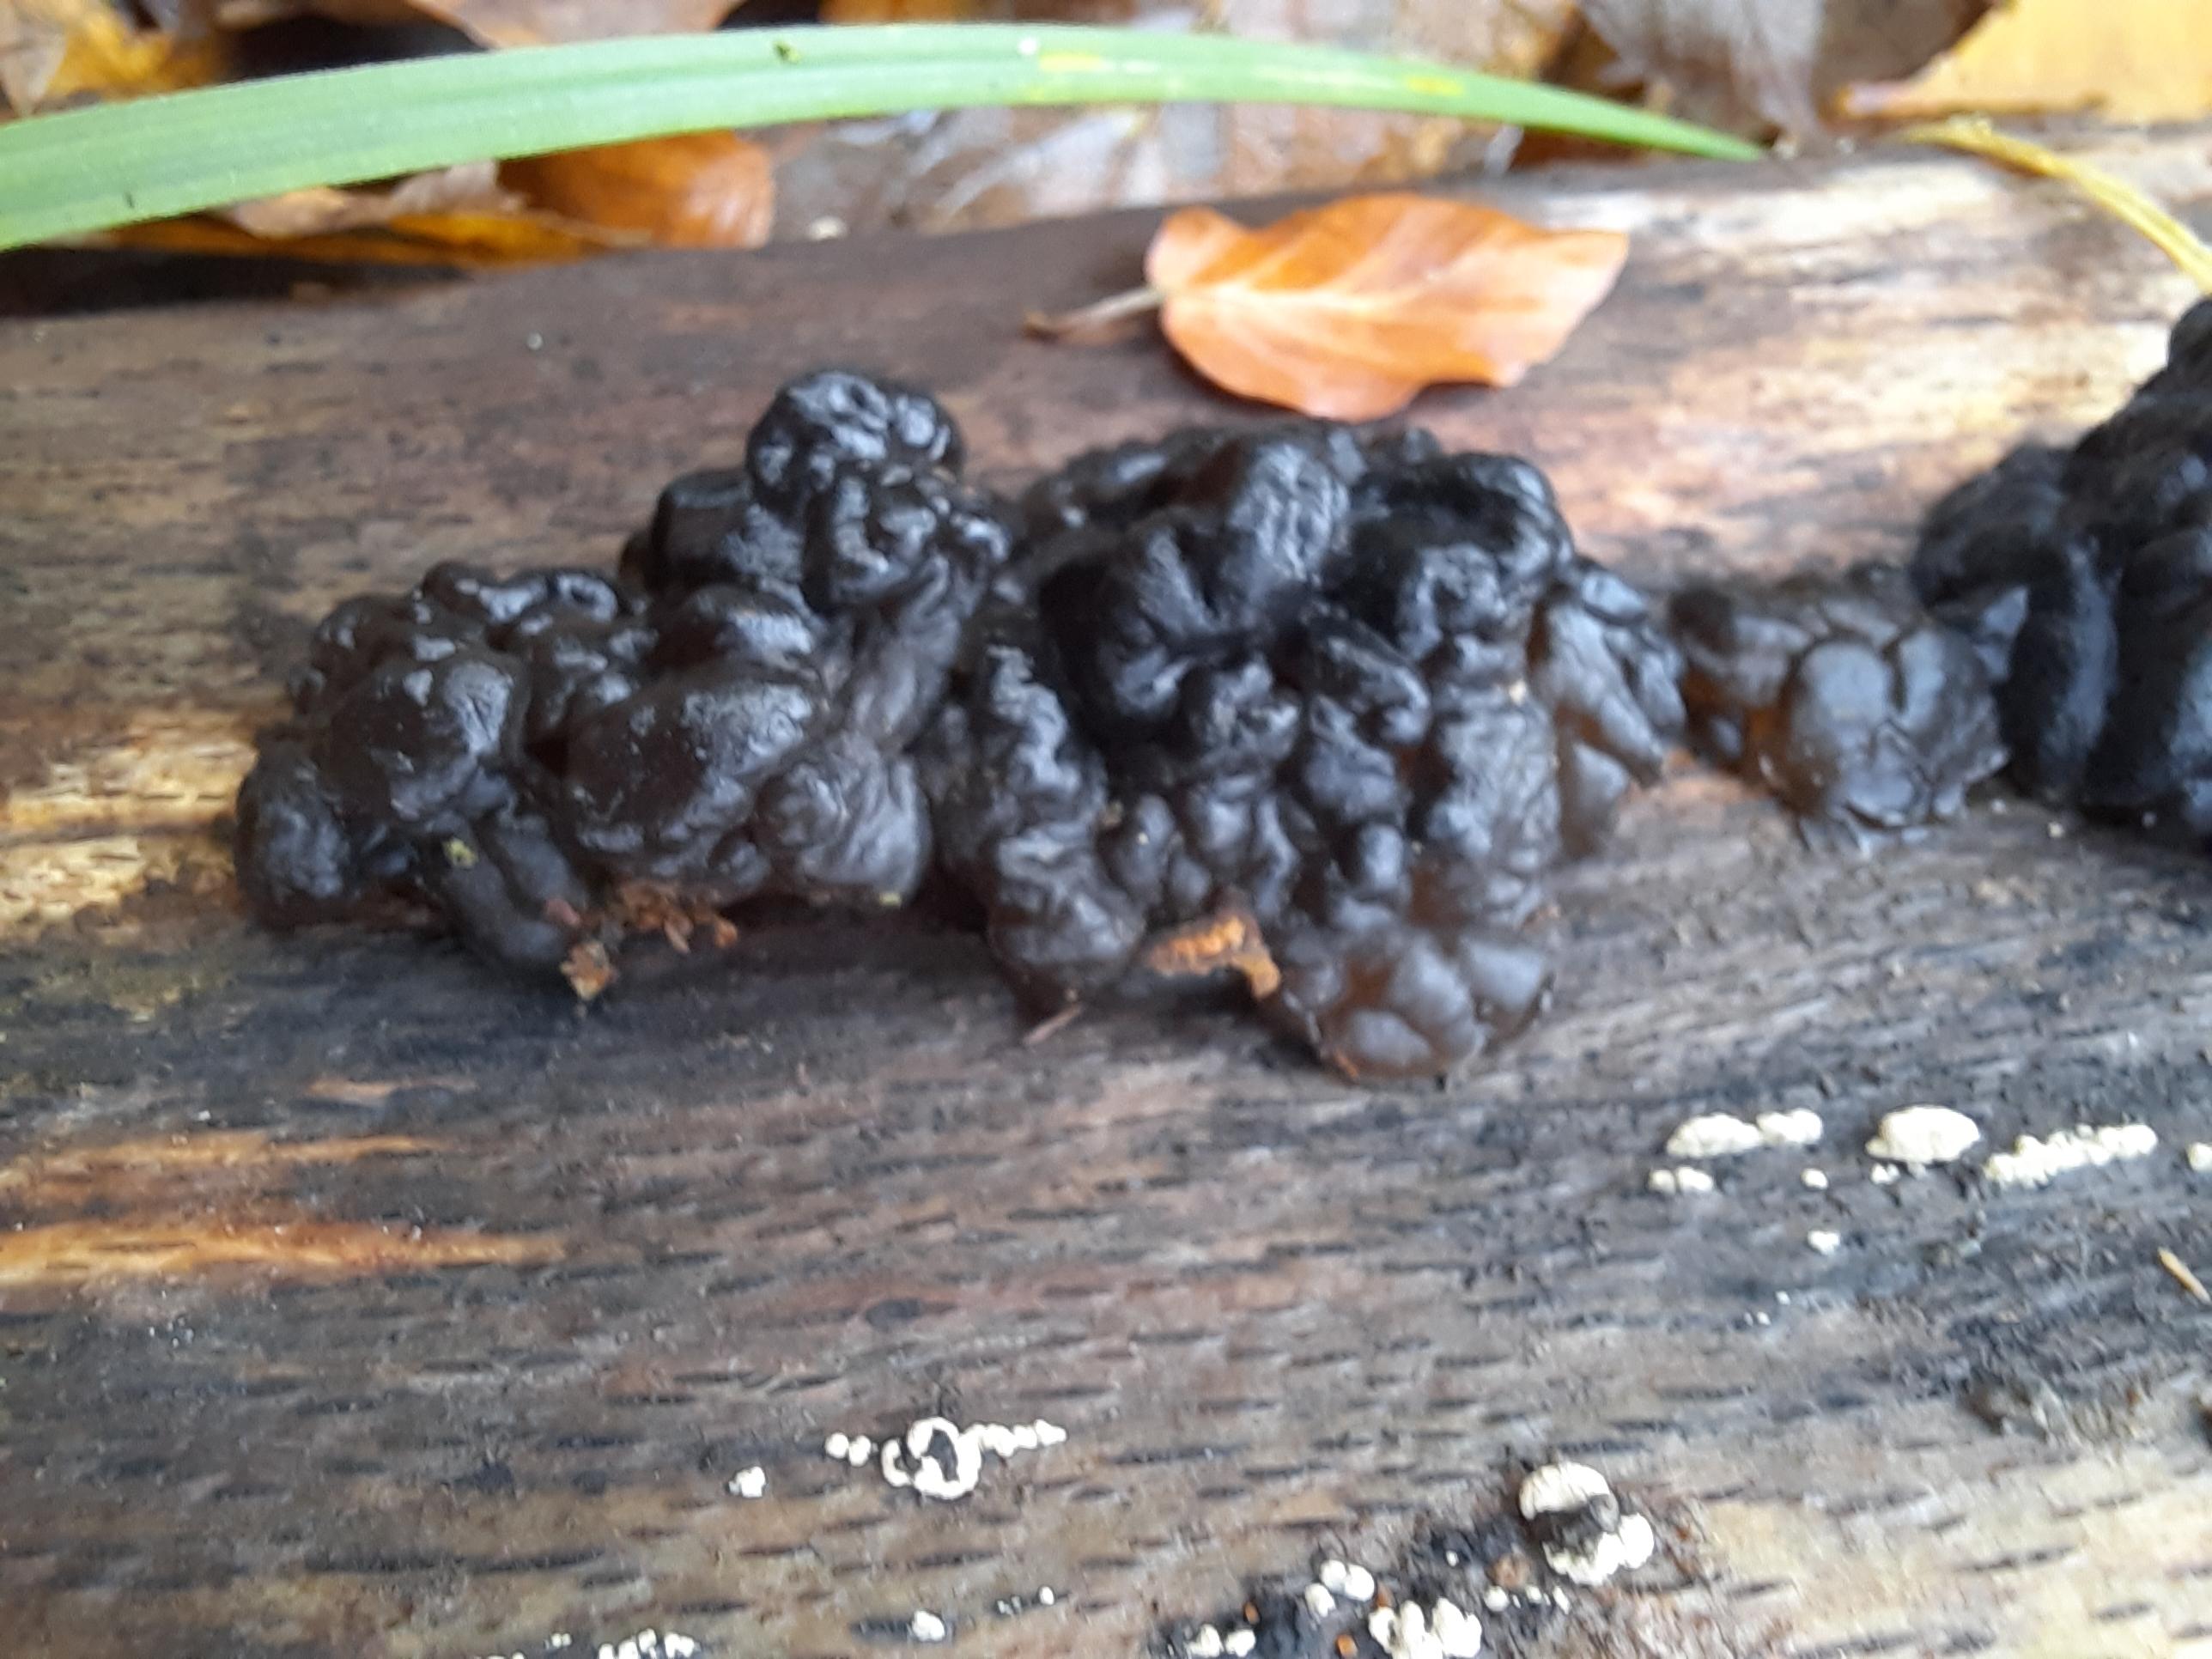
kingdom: Fungi
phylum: Basidiomycota
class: Agaricomycetes
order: Auriculariales
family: Auriculariaceae
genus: Exidia
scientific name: Exidia nigricans
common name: almindelig bævretop
